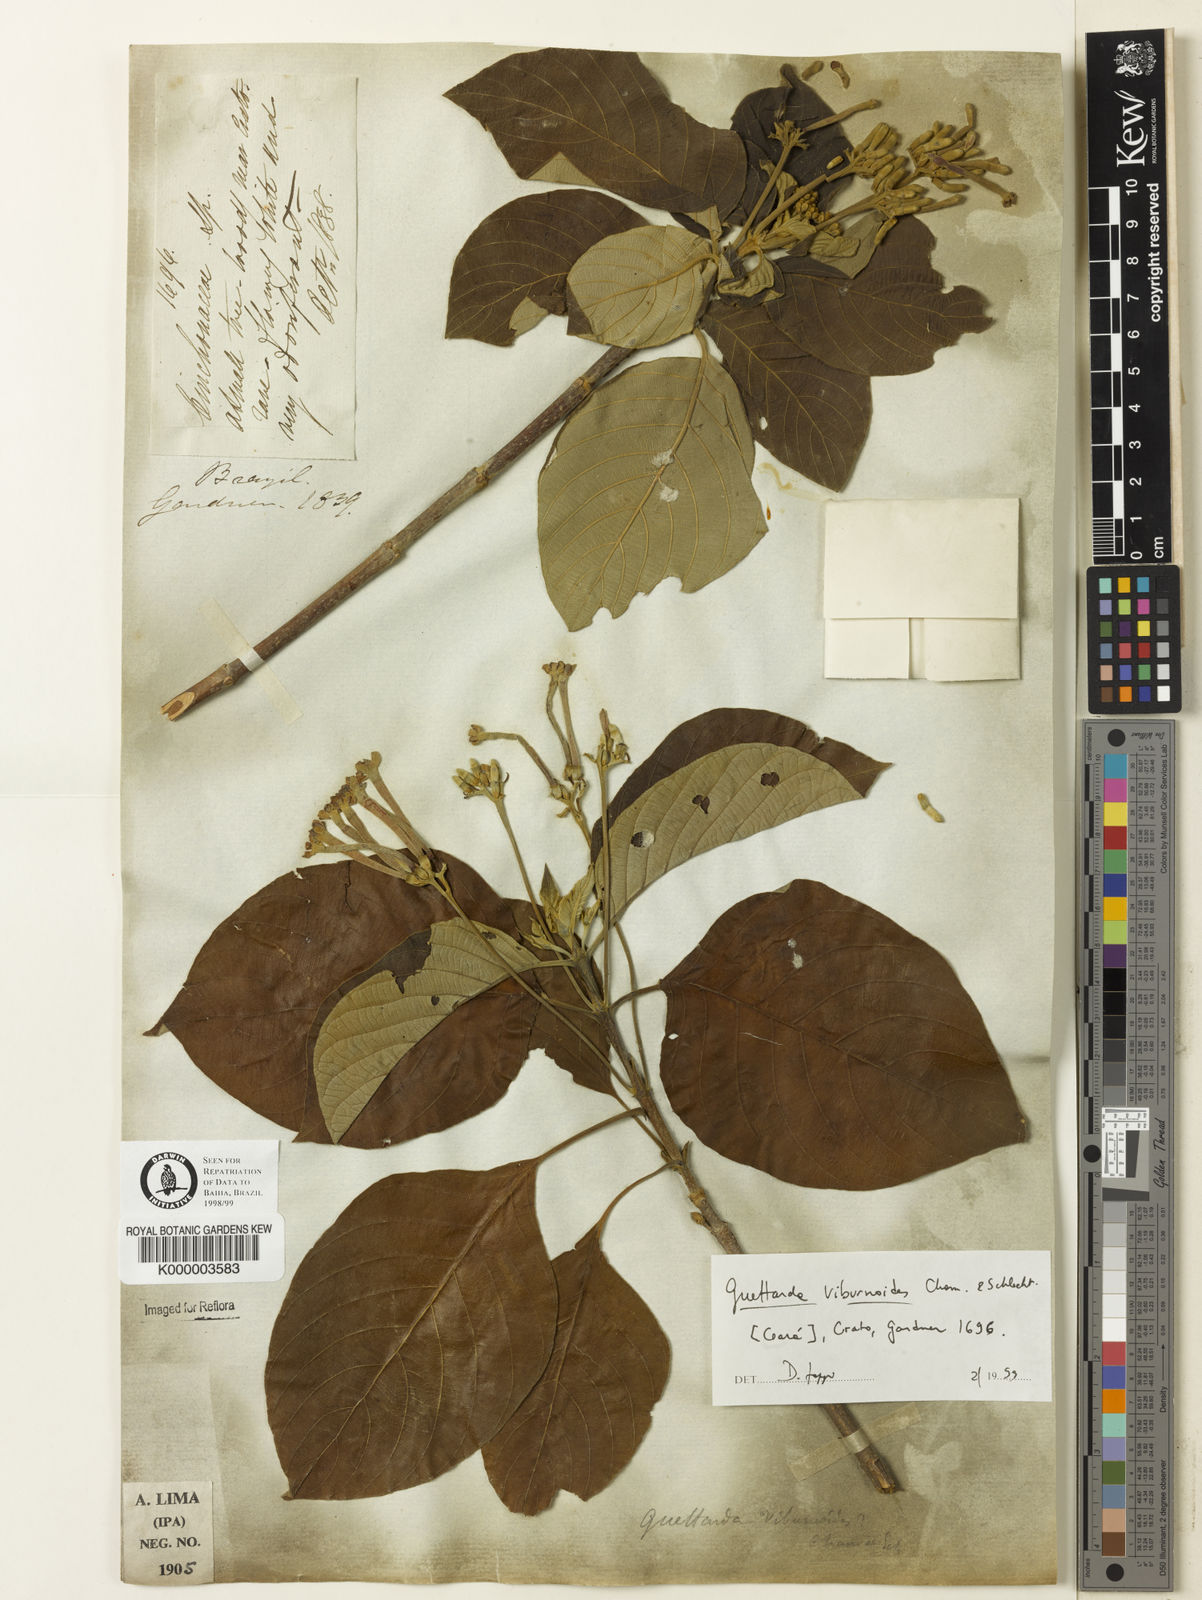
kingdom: Plantae
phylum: Tracheophyta
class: Magnoliopsida
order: Gentianales
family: Rubiaceae
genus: Guettarda
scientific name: Guettarda viburnoides
